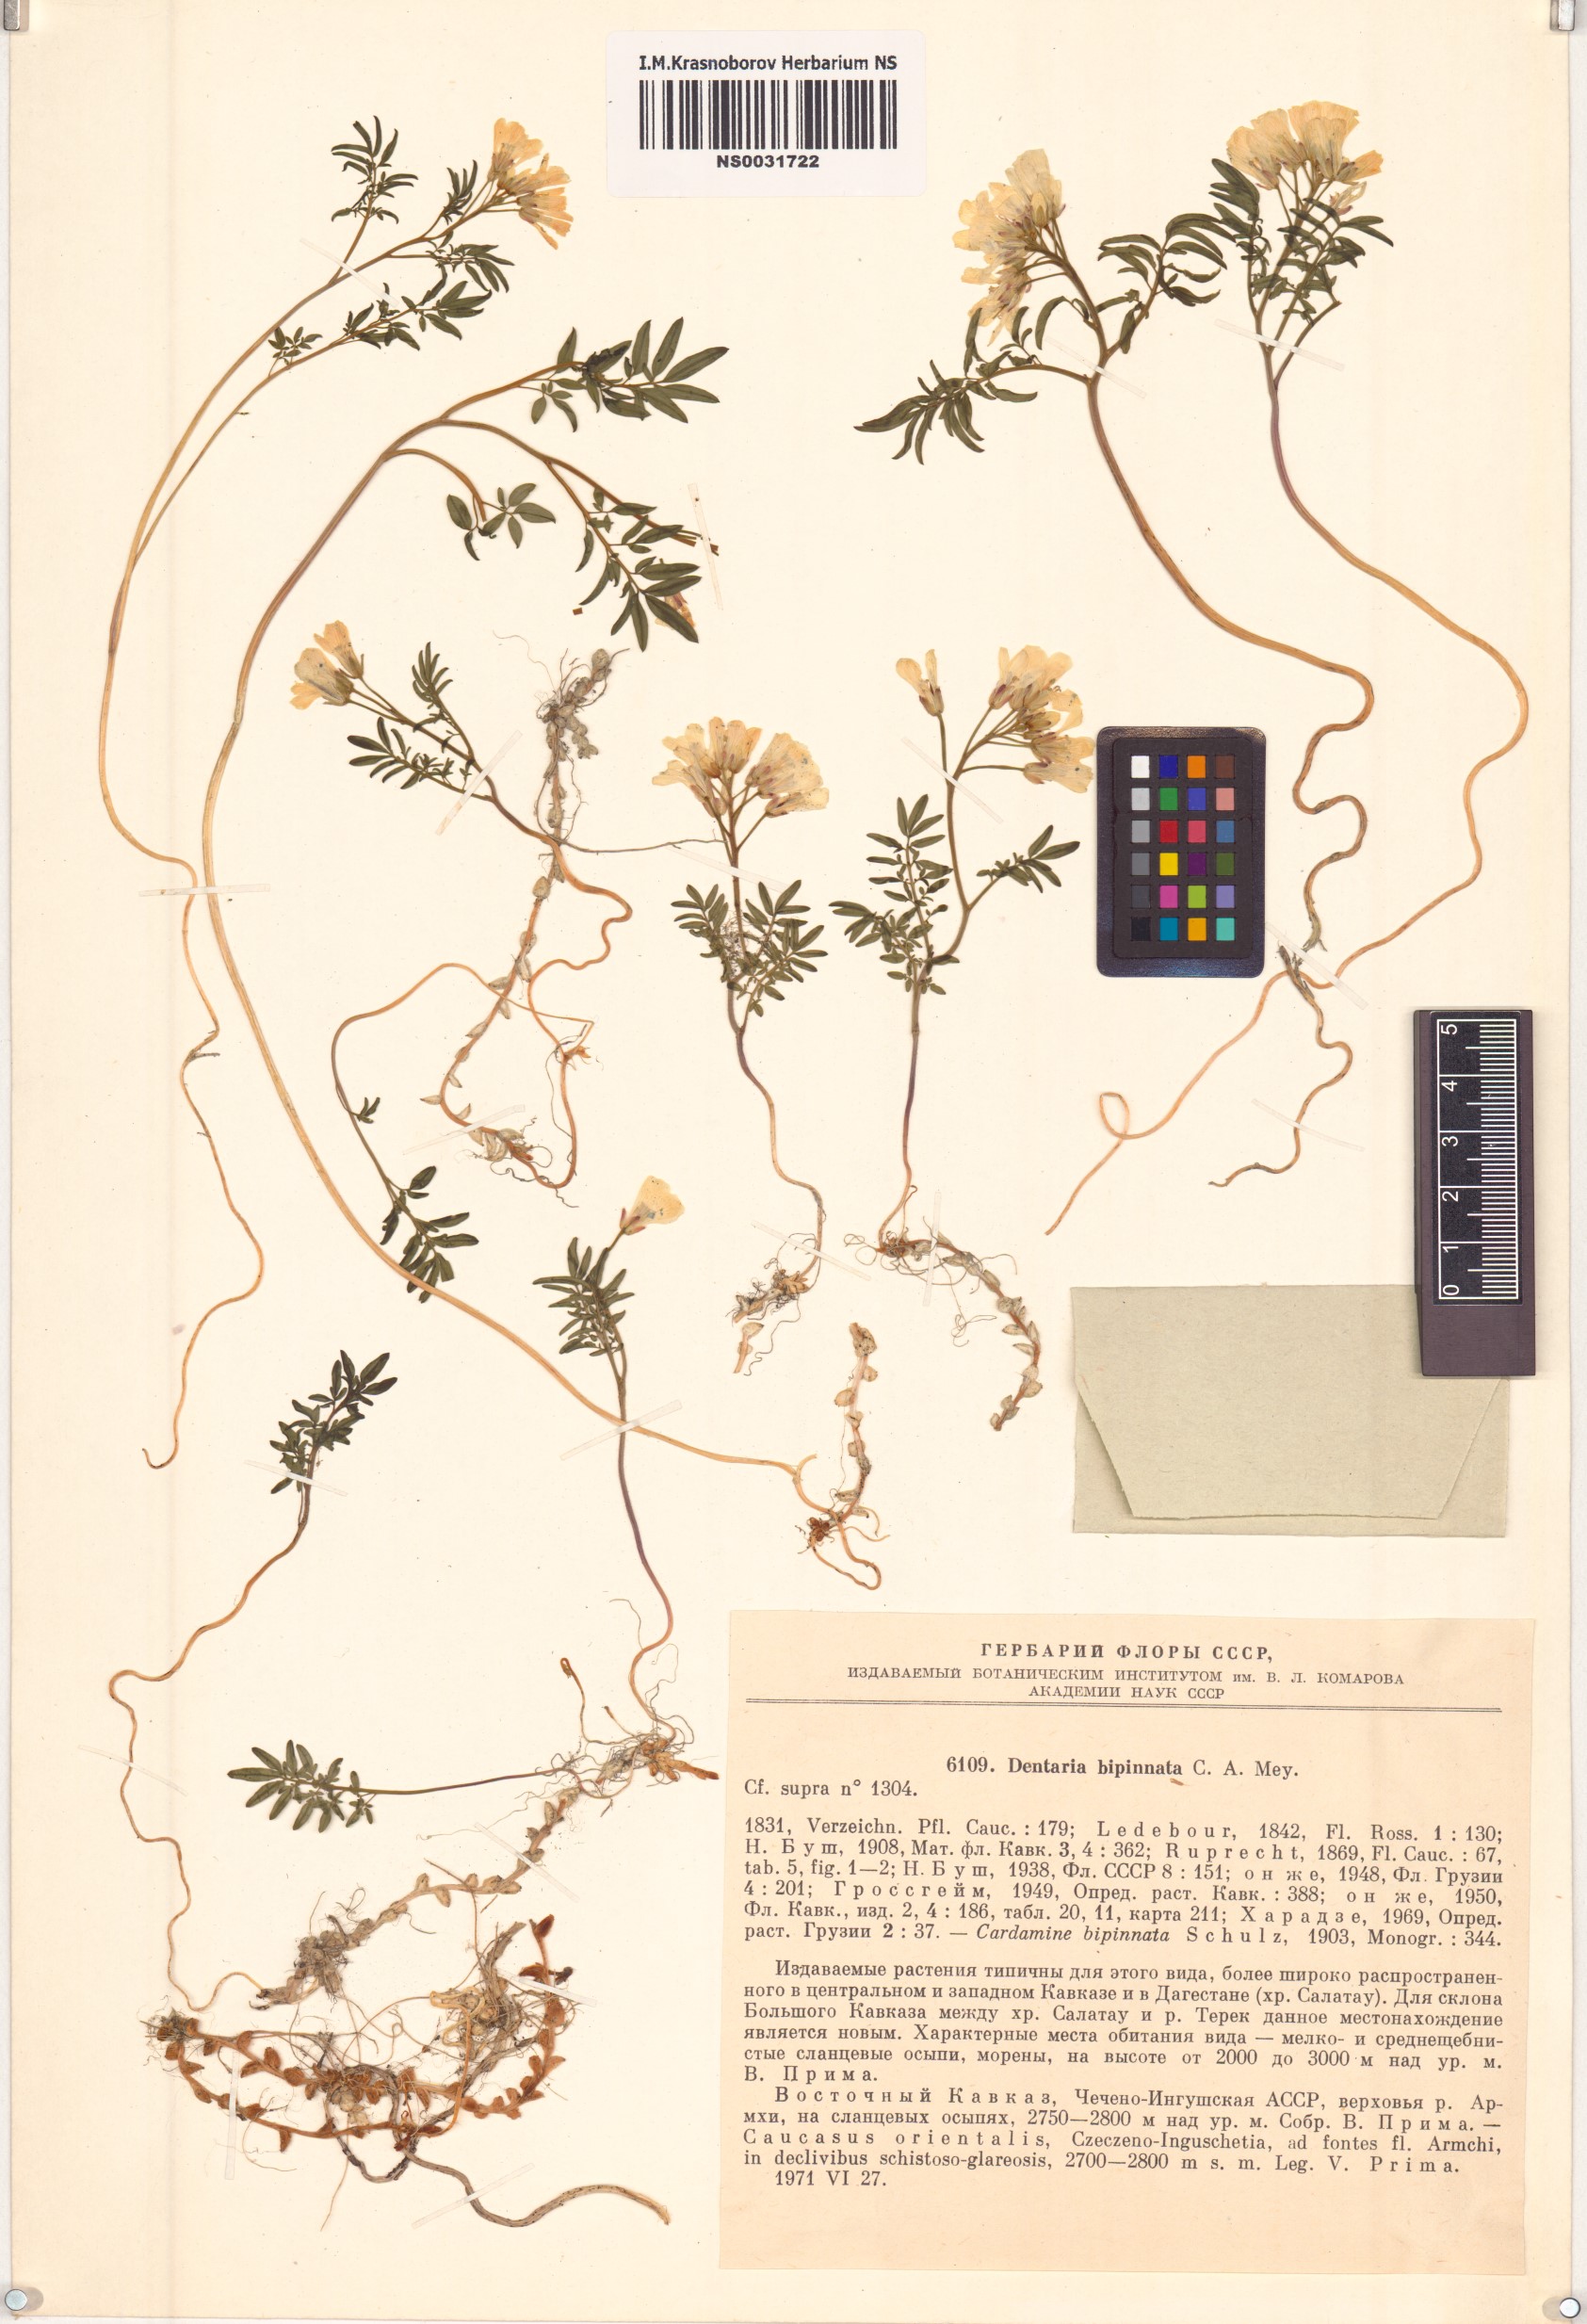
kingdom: Plantae
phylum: Tracheophyta
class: Magnoliopsida
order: Brassicales
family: Brassicaceae
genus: Cardamine
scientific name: Cardamine bipinnata
